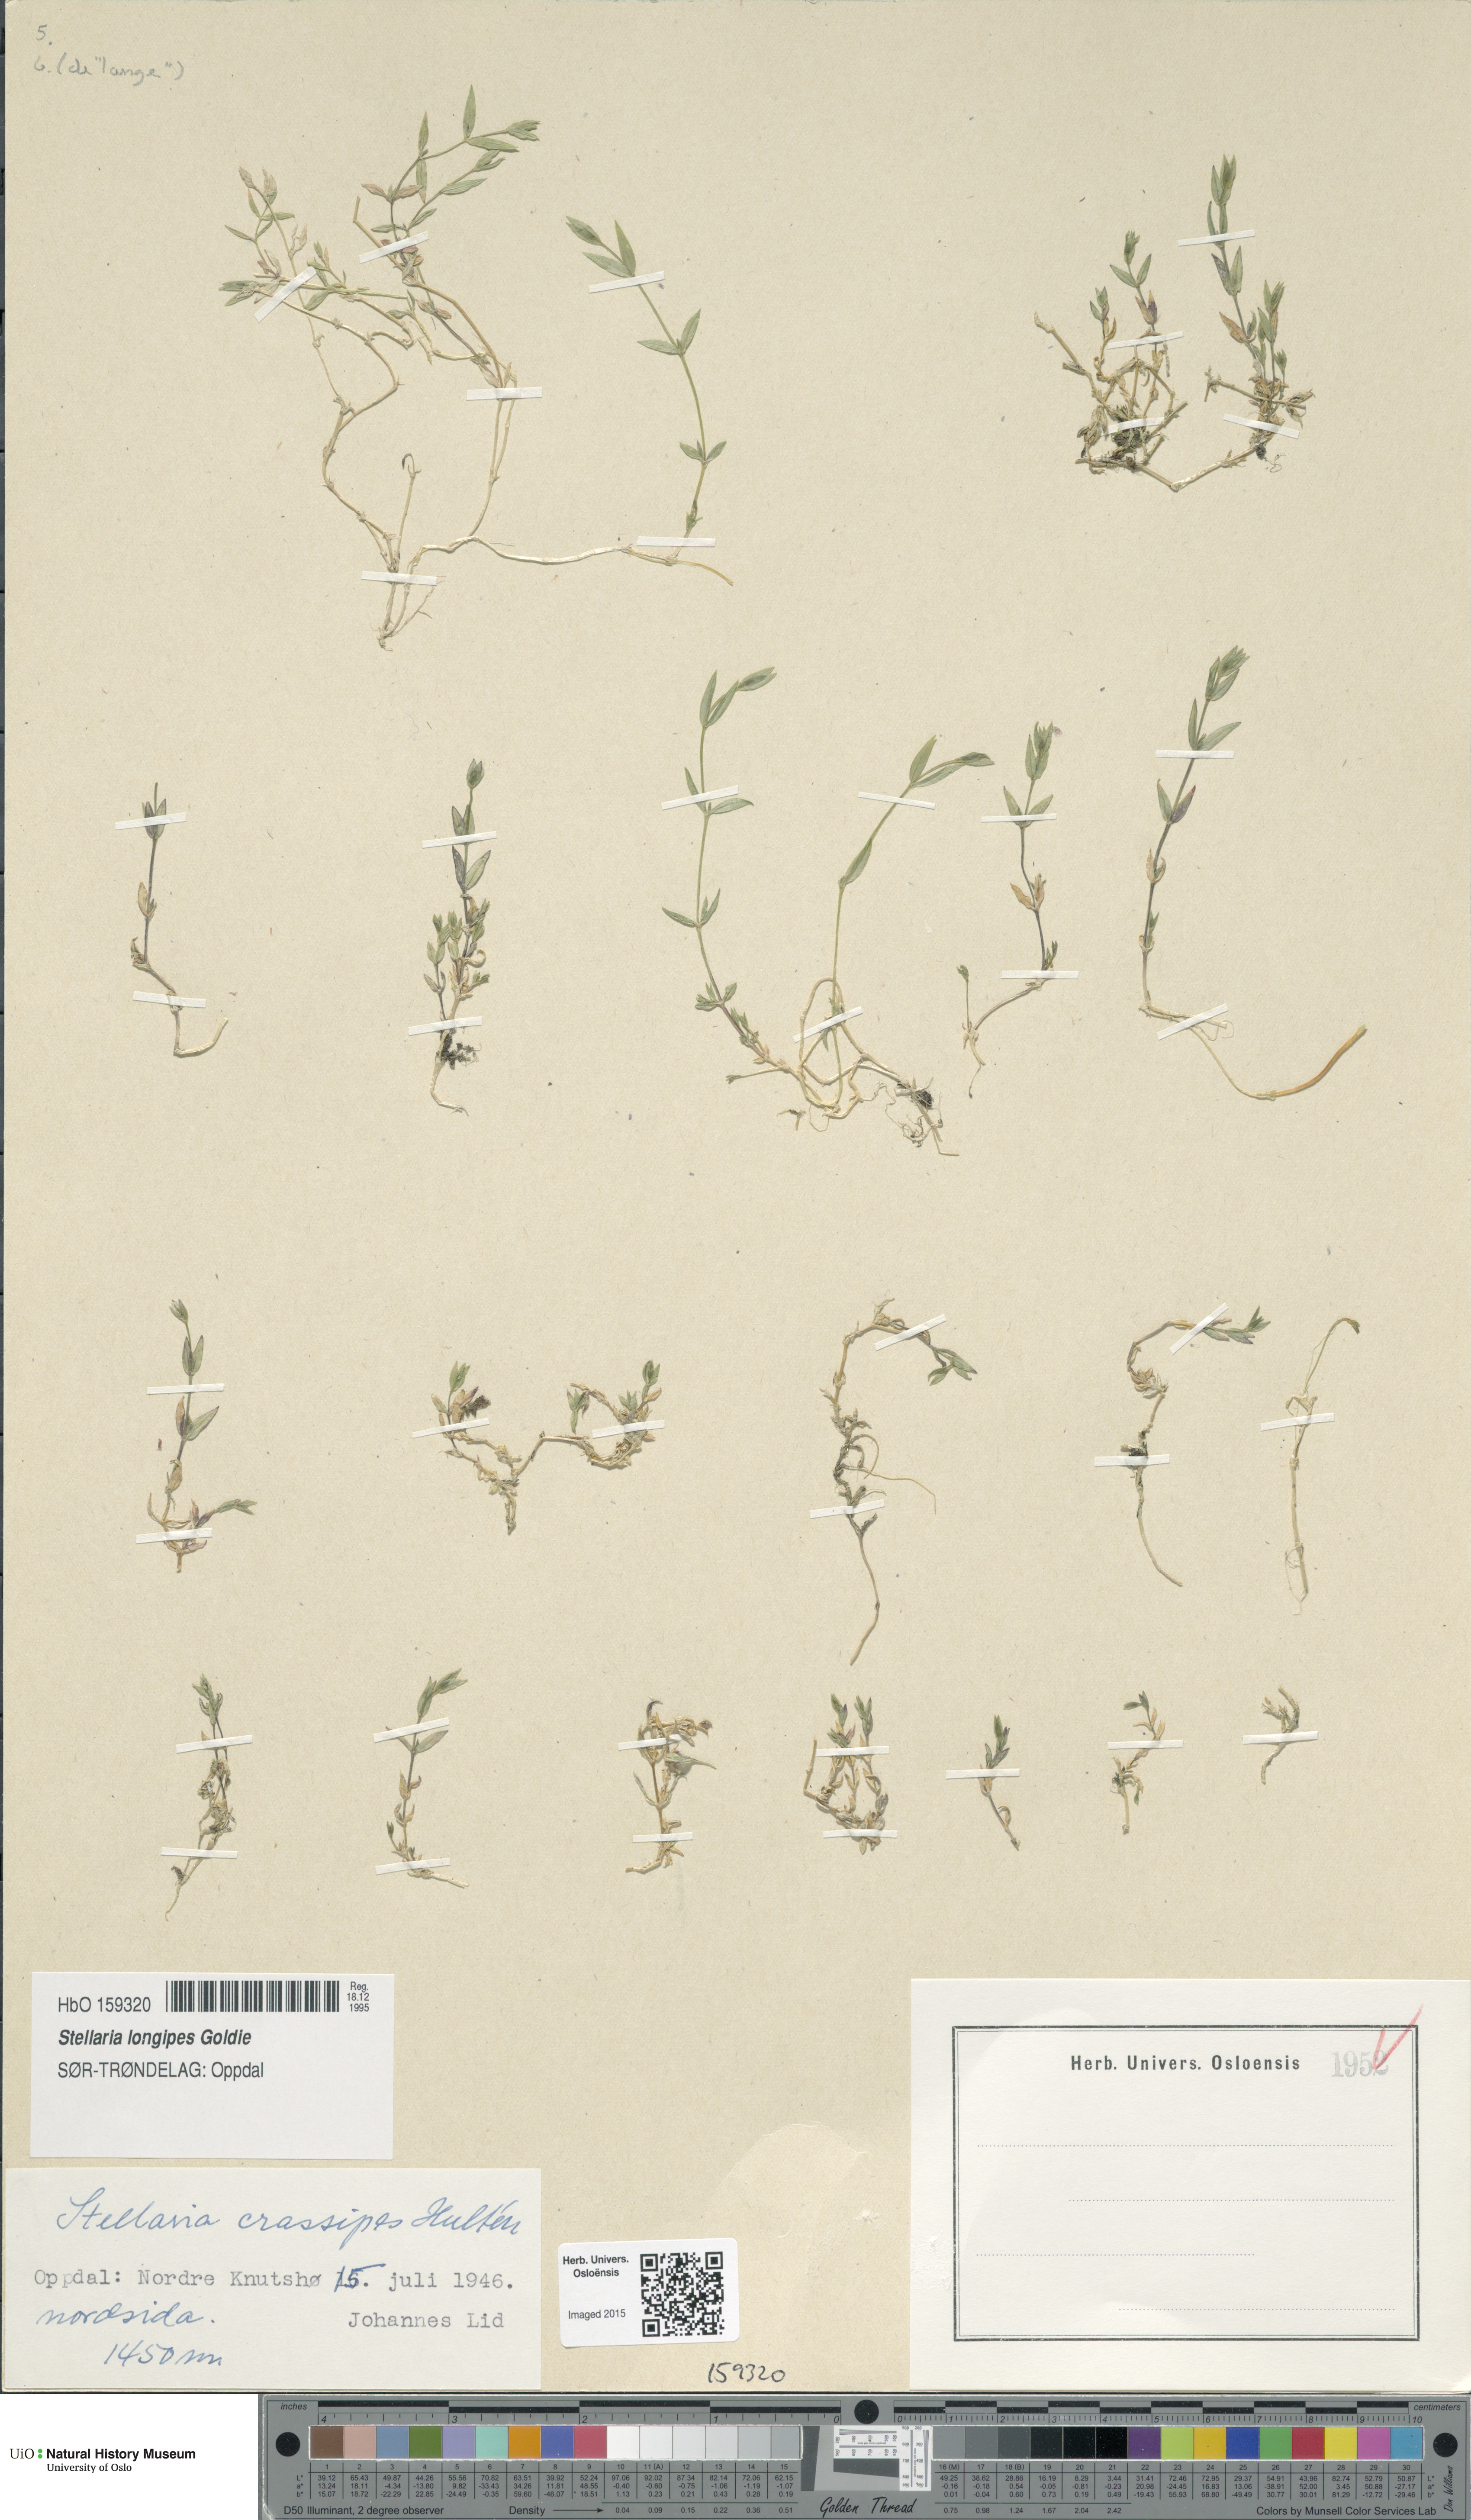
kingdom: Plantae
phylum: Tracheophyta
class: Magnoliopsida
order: Caryophyllales
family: Caryophyllaceae
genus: Stellaria
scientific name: Stellaria longipes
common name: Goldie's starwort
